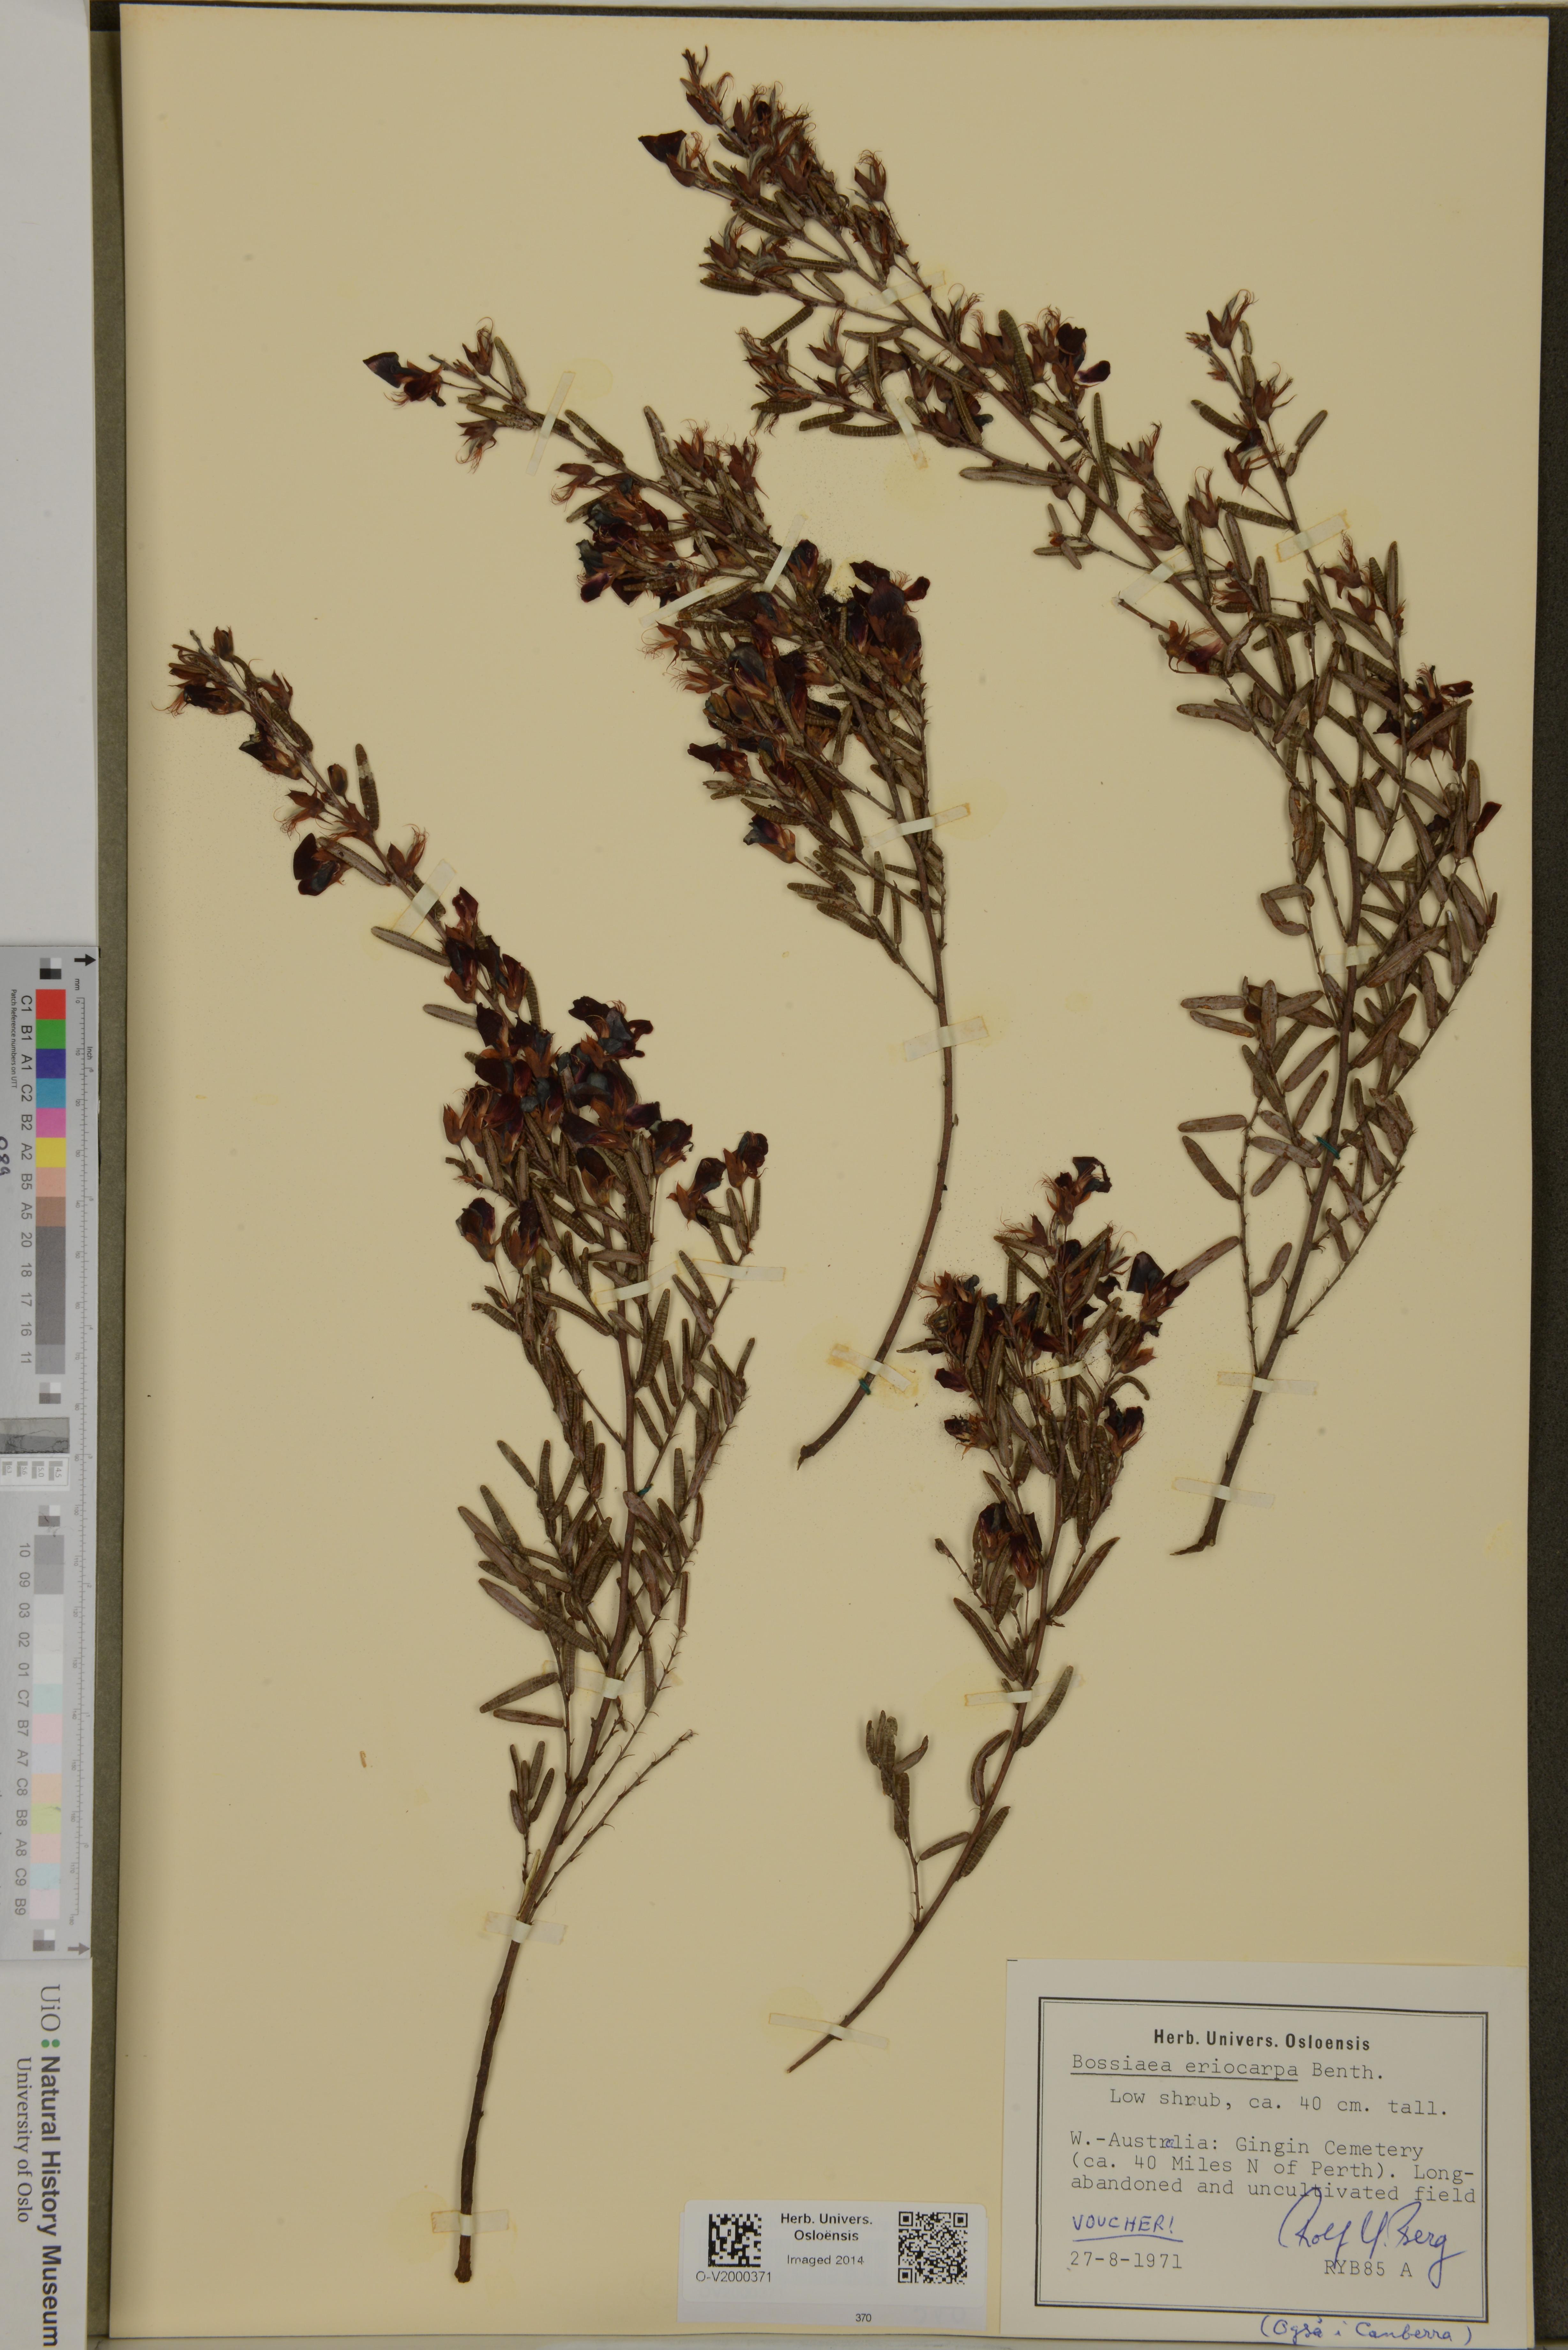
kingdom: Plantae
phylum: Tracheophyta
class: Magnoliopsida
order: Fabales
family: Fabaceae
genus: Bossiaea
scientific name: Bossiaea eriocarpa
